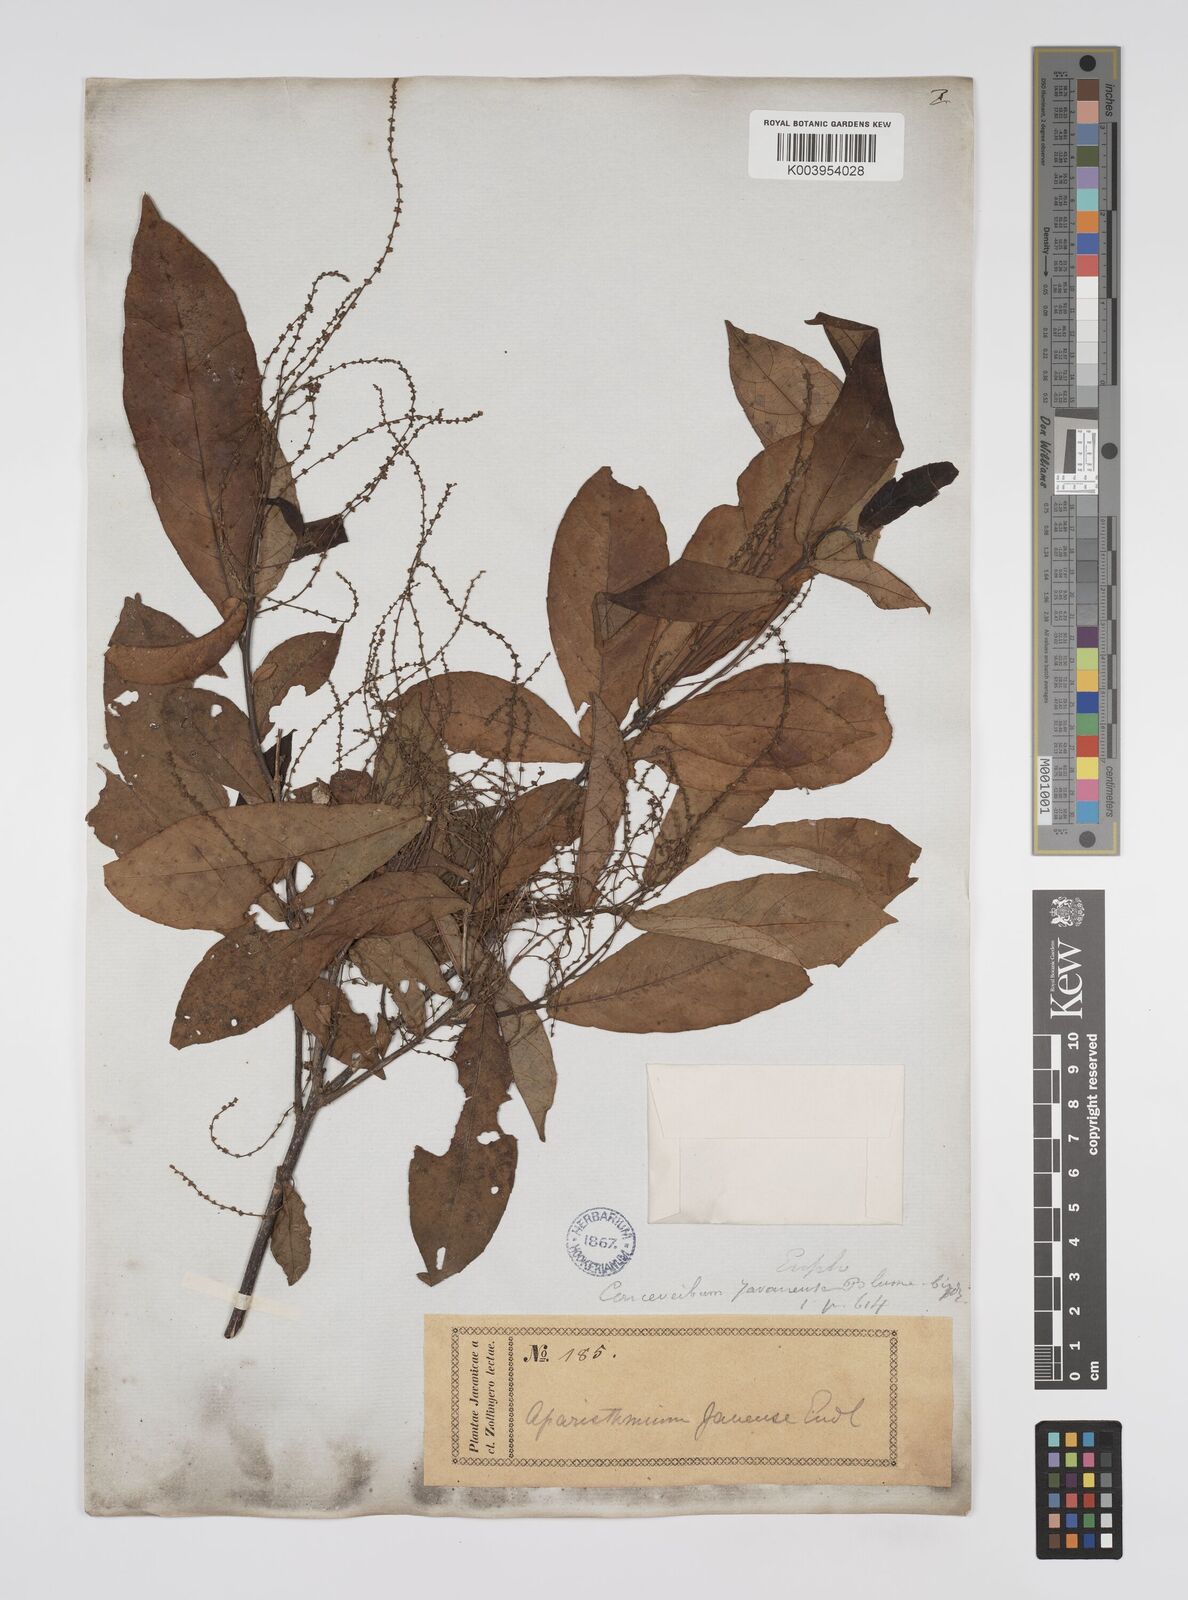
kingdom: Plantae
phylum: Tracheophyta
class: Magnoliopsida
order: Malpighiales
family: Euphorbiaceae
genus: Alchornea
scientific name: Alchornea rugosa
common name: Alchorntree
